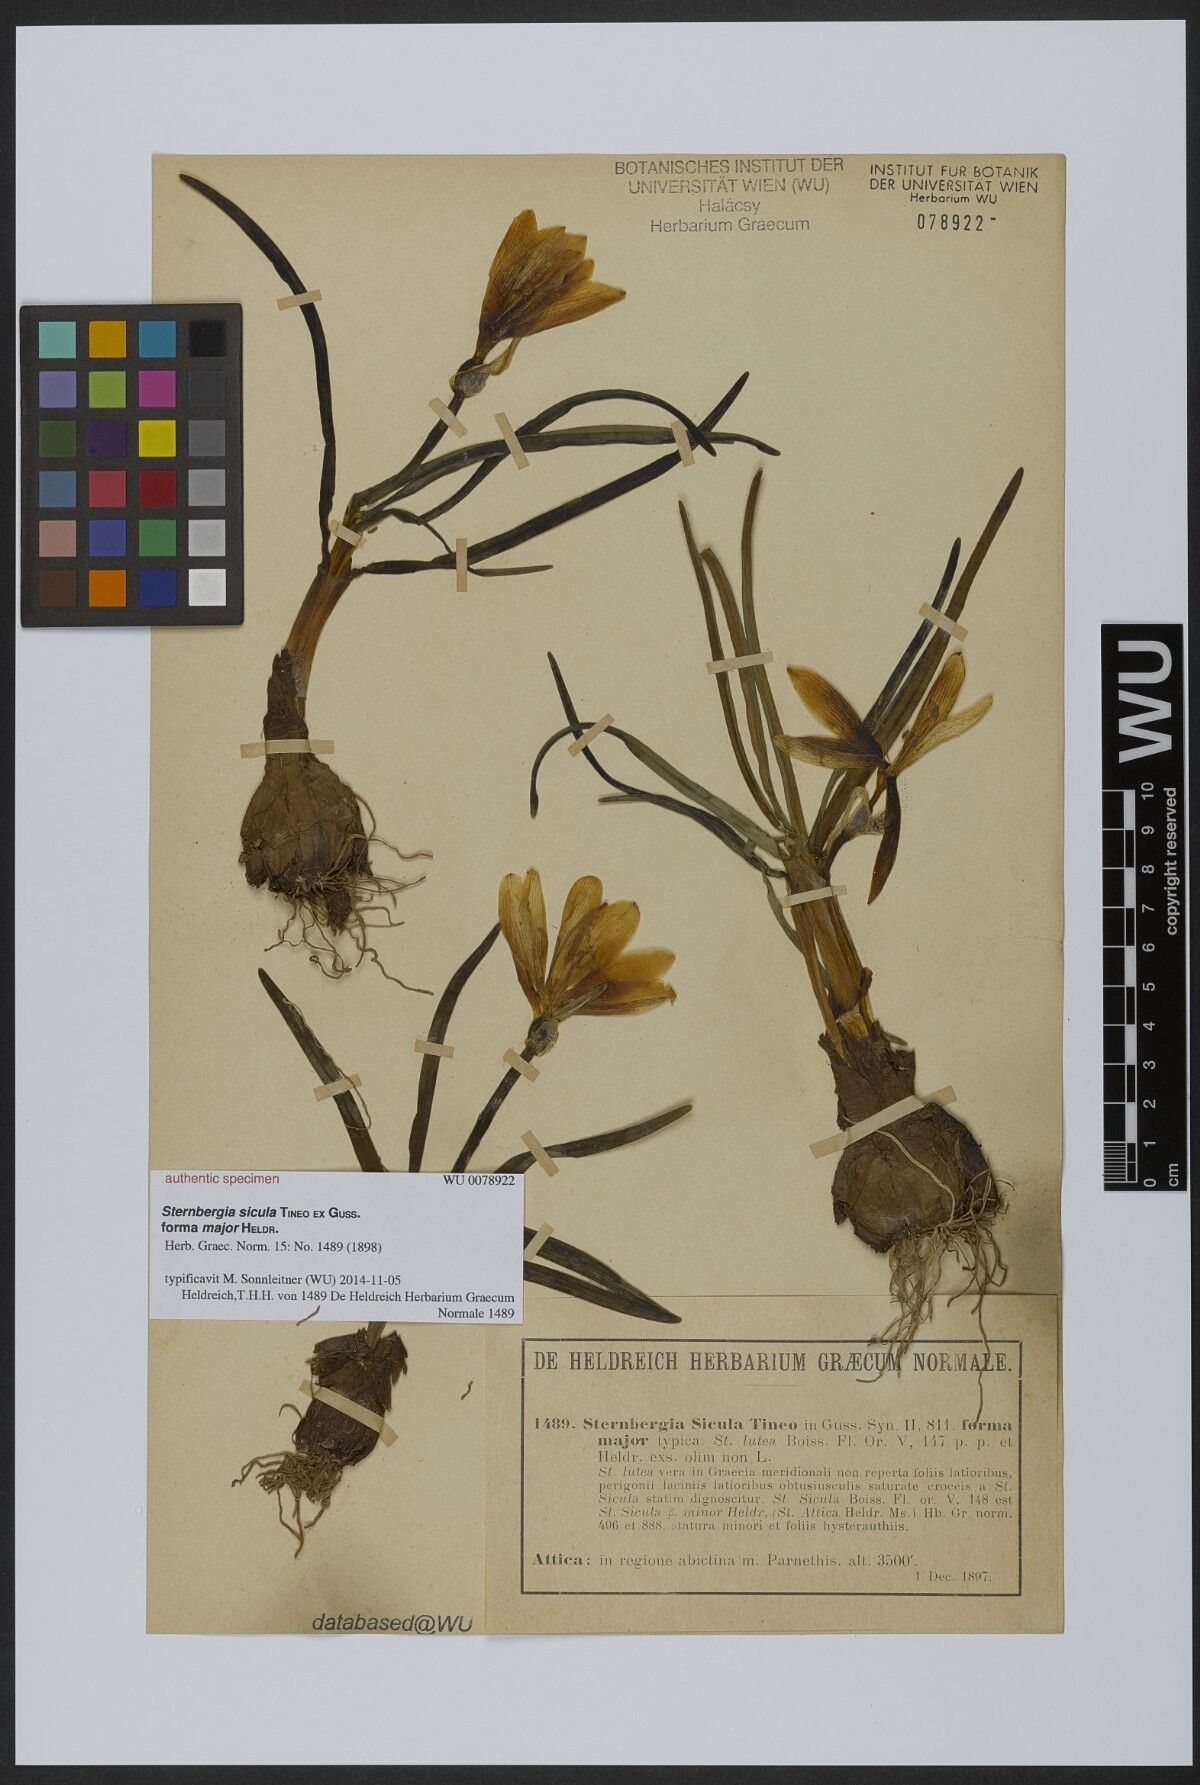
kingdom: Plantae
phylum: Tracheophyta
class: Liliopsida
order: Asparagales
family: Amaryllidaceae
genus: Sternbergia
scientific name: Sternbergia lutea
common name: Winter daffodil
